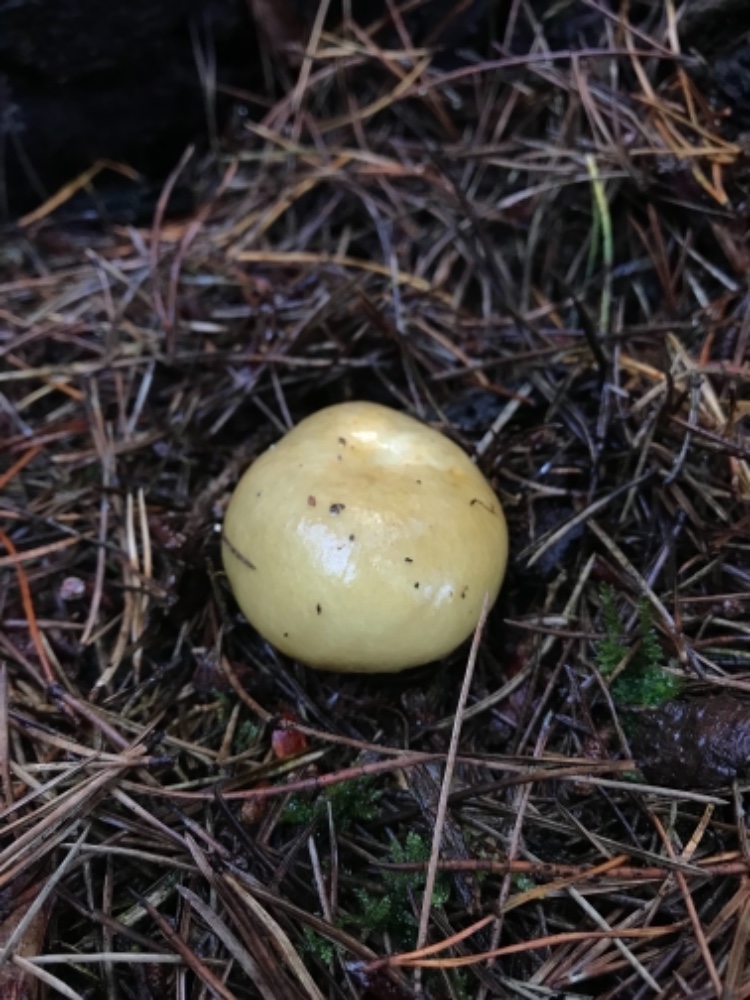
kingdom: Fungi
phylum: Basidiomycota
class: Agaricomycetes
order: Russulales
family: Russulaceae
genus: Russula
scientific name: Russula ochroleuca
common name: okkergul skørhat
